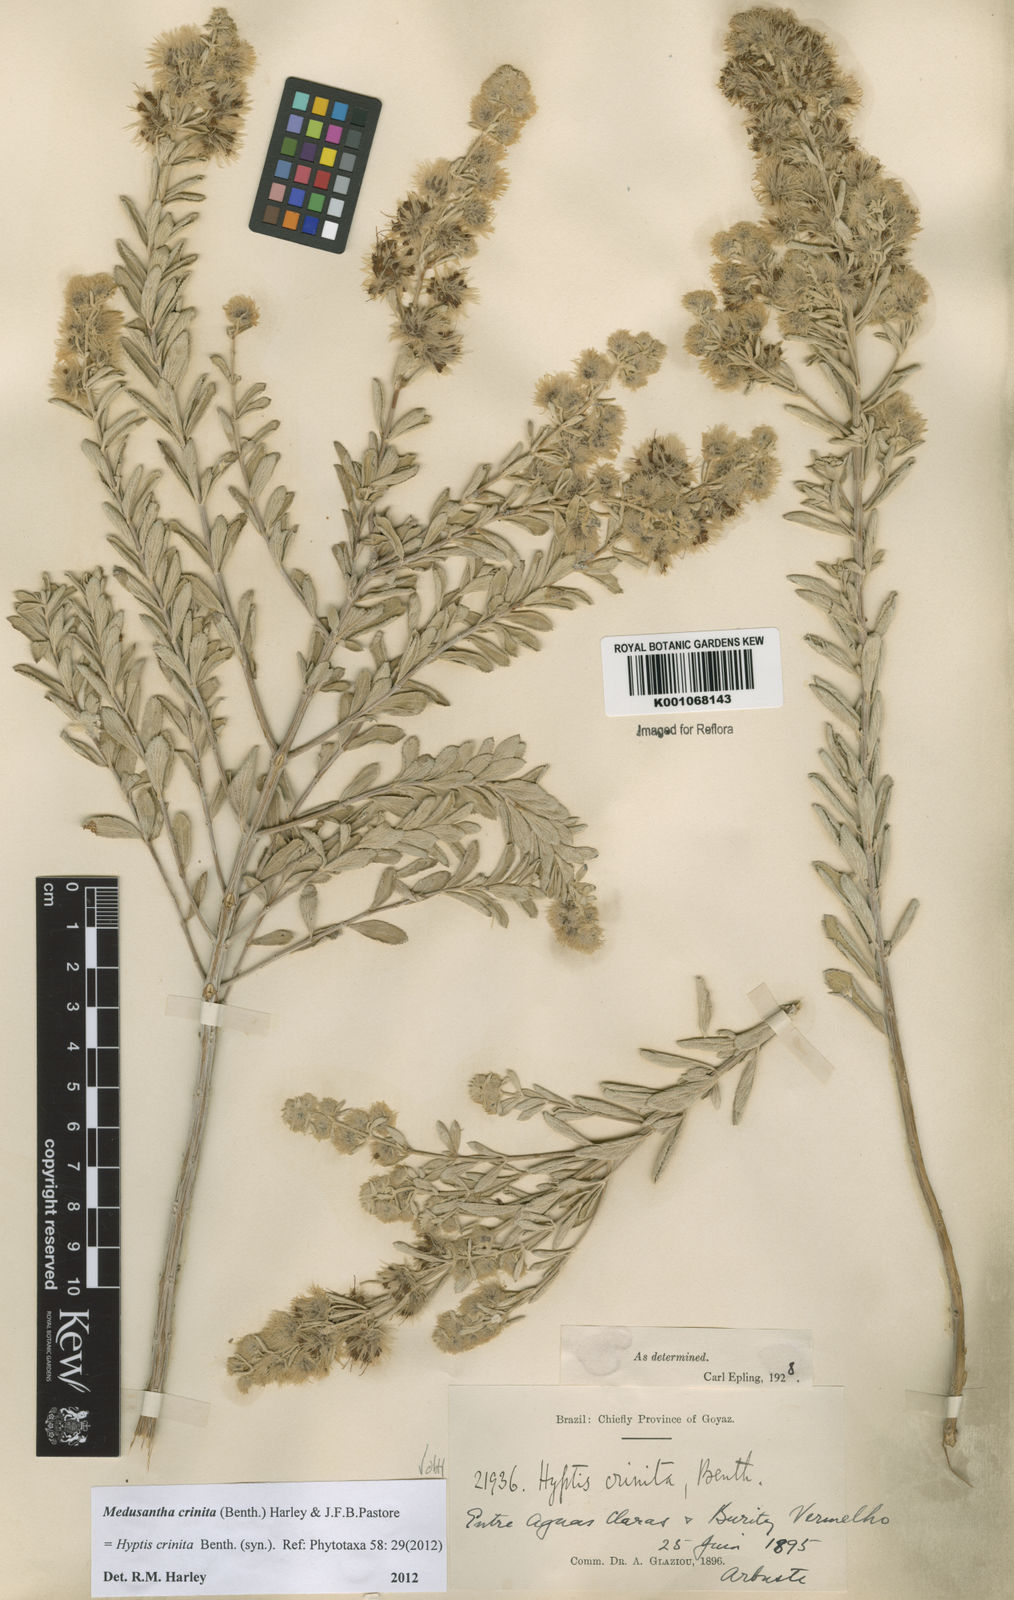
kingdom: Plantae
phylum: Tracheophyta
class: Magnoliopsida
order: Lamiales
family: Lamiaceae
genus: Medusantha
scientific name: Medusantha crinita
